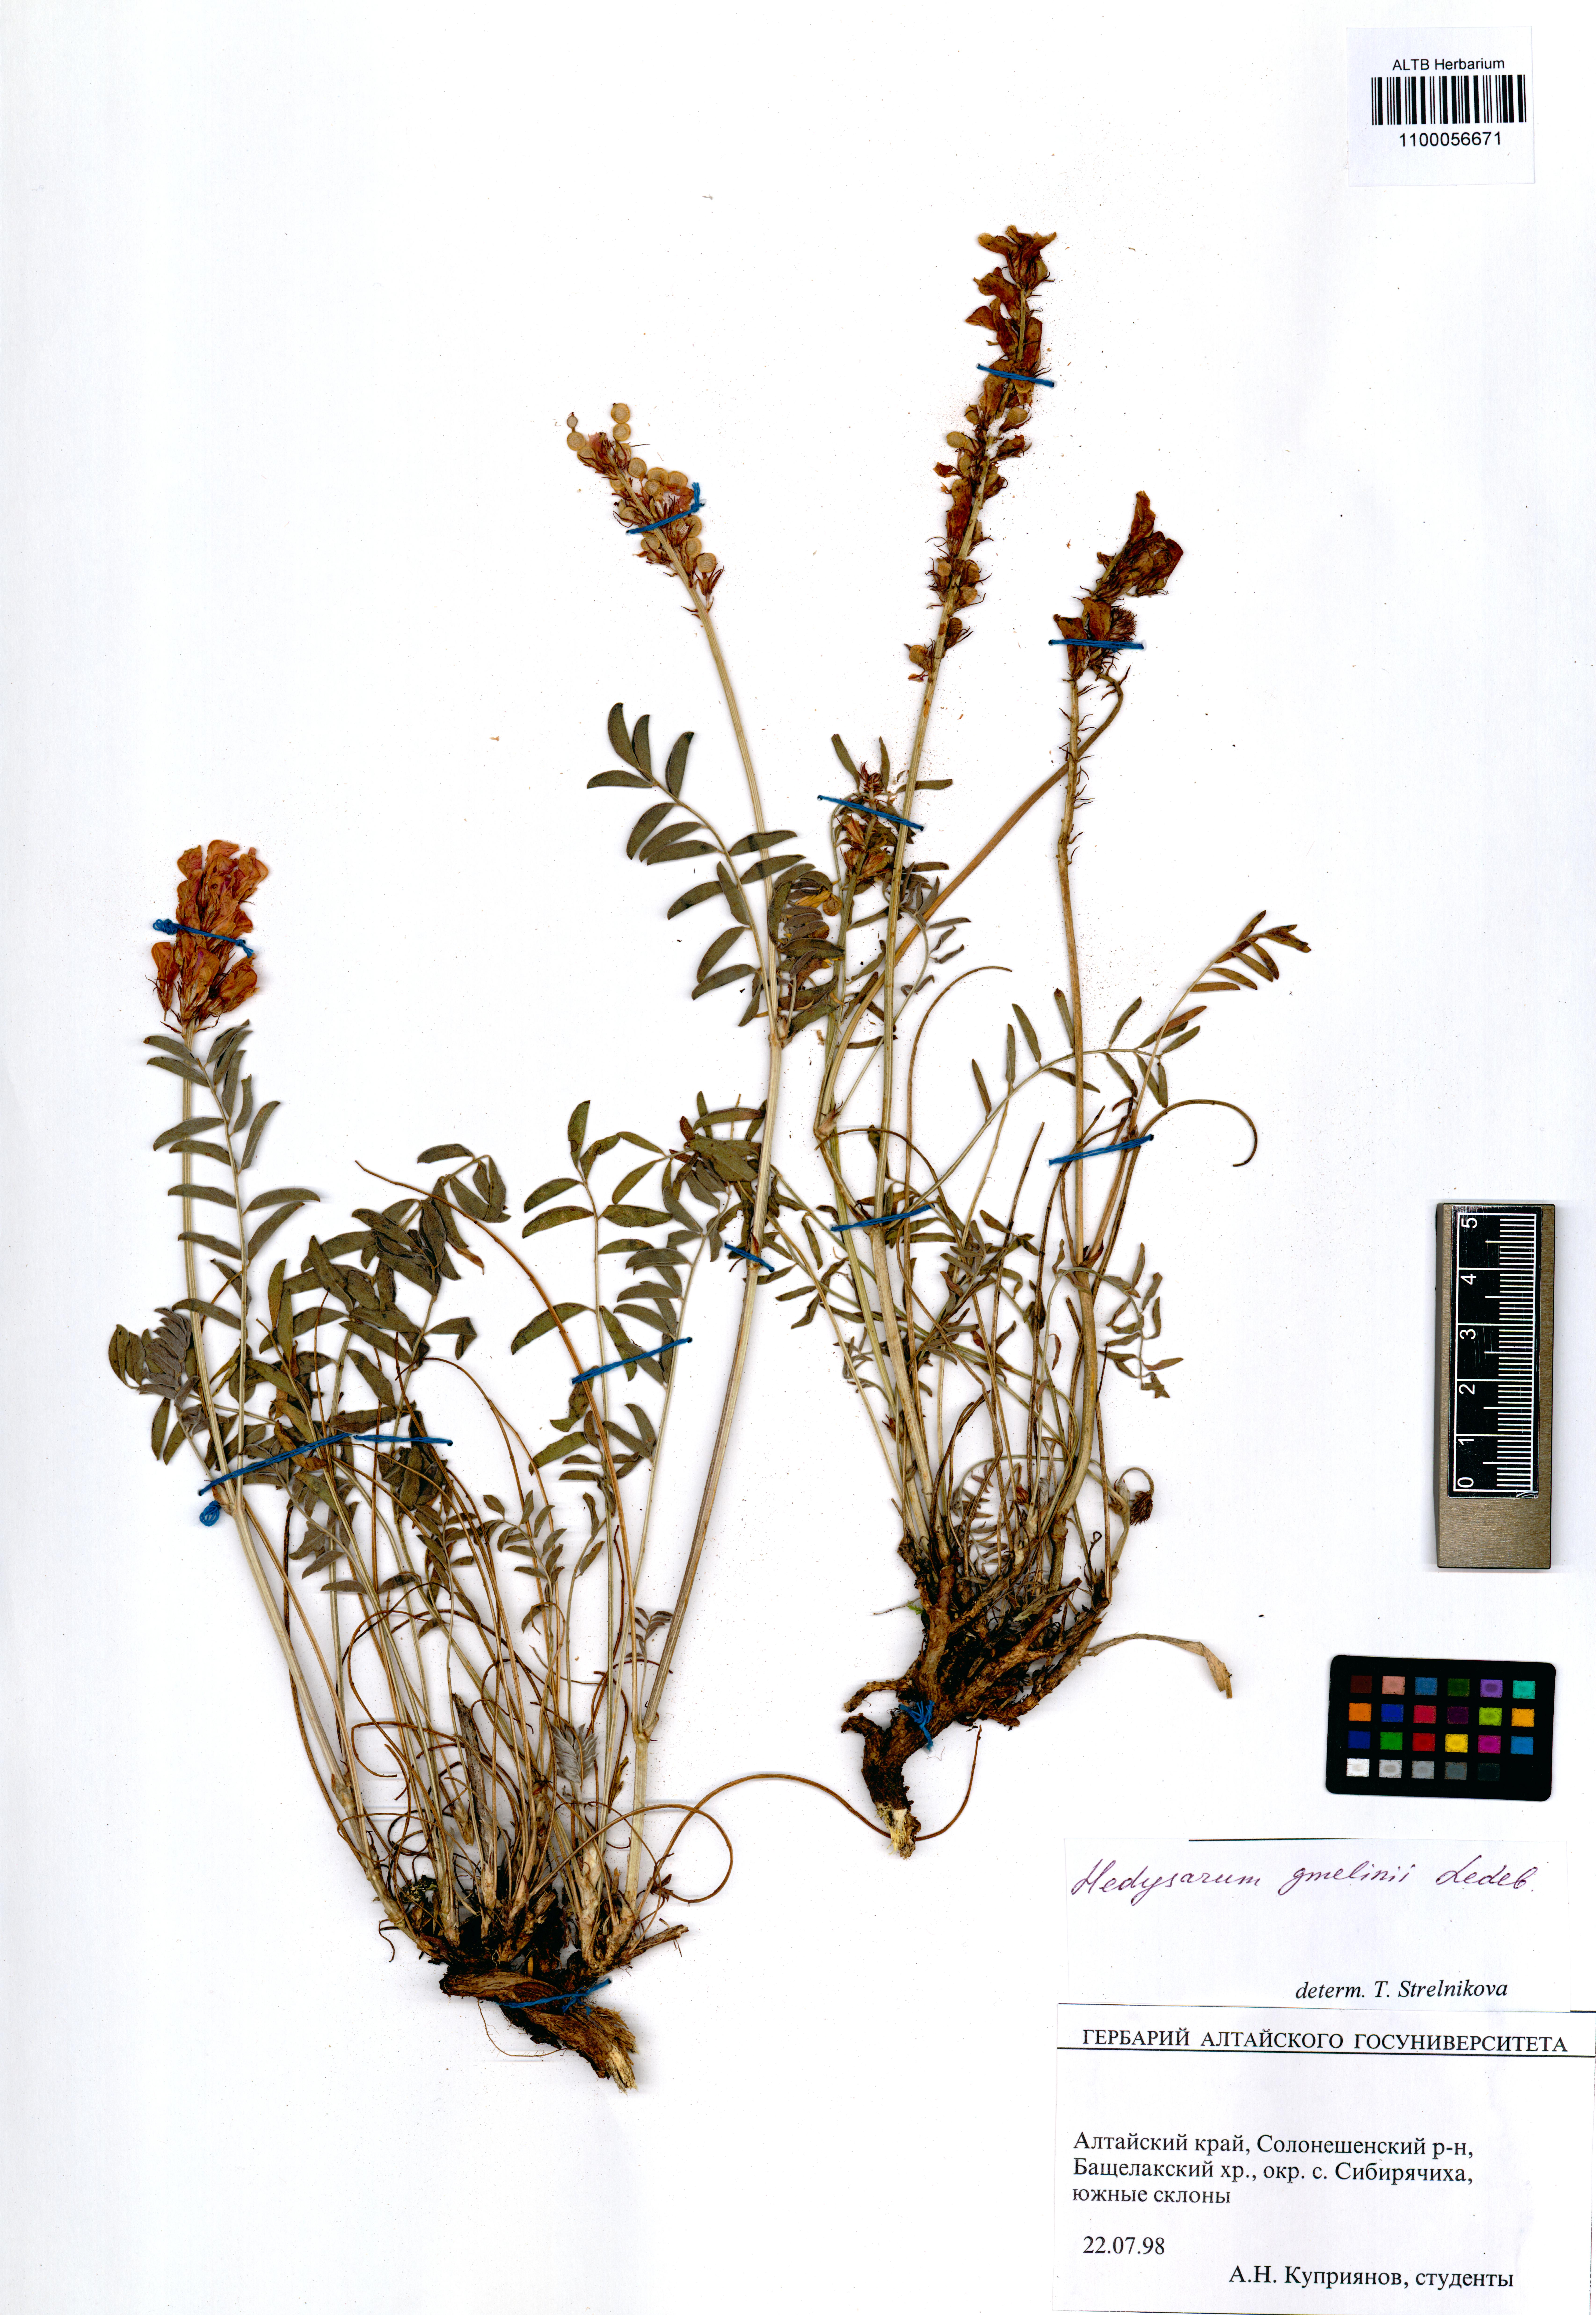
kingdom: Plantae
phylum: Tracheophyta
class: Magnoliopsida
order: Fabales
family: Fabaceae
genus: Hedysarum
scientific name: Hedysarum gmelinii
